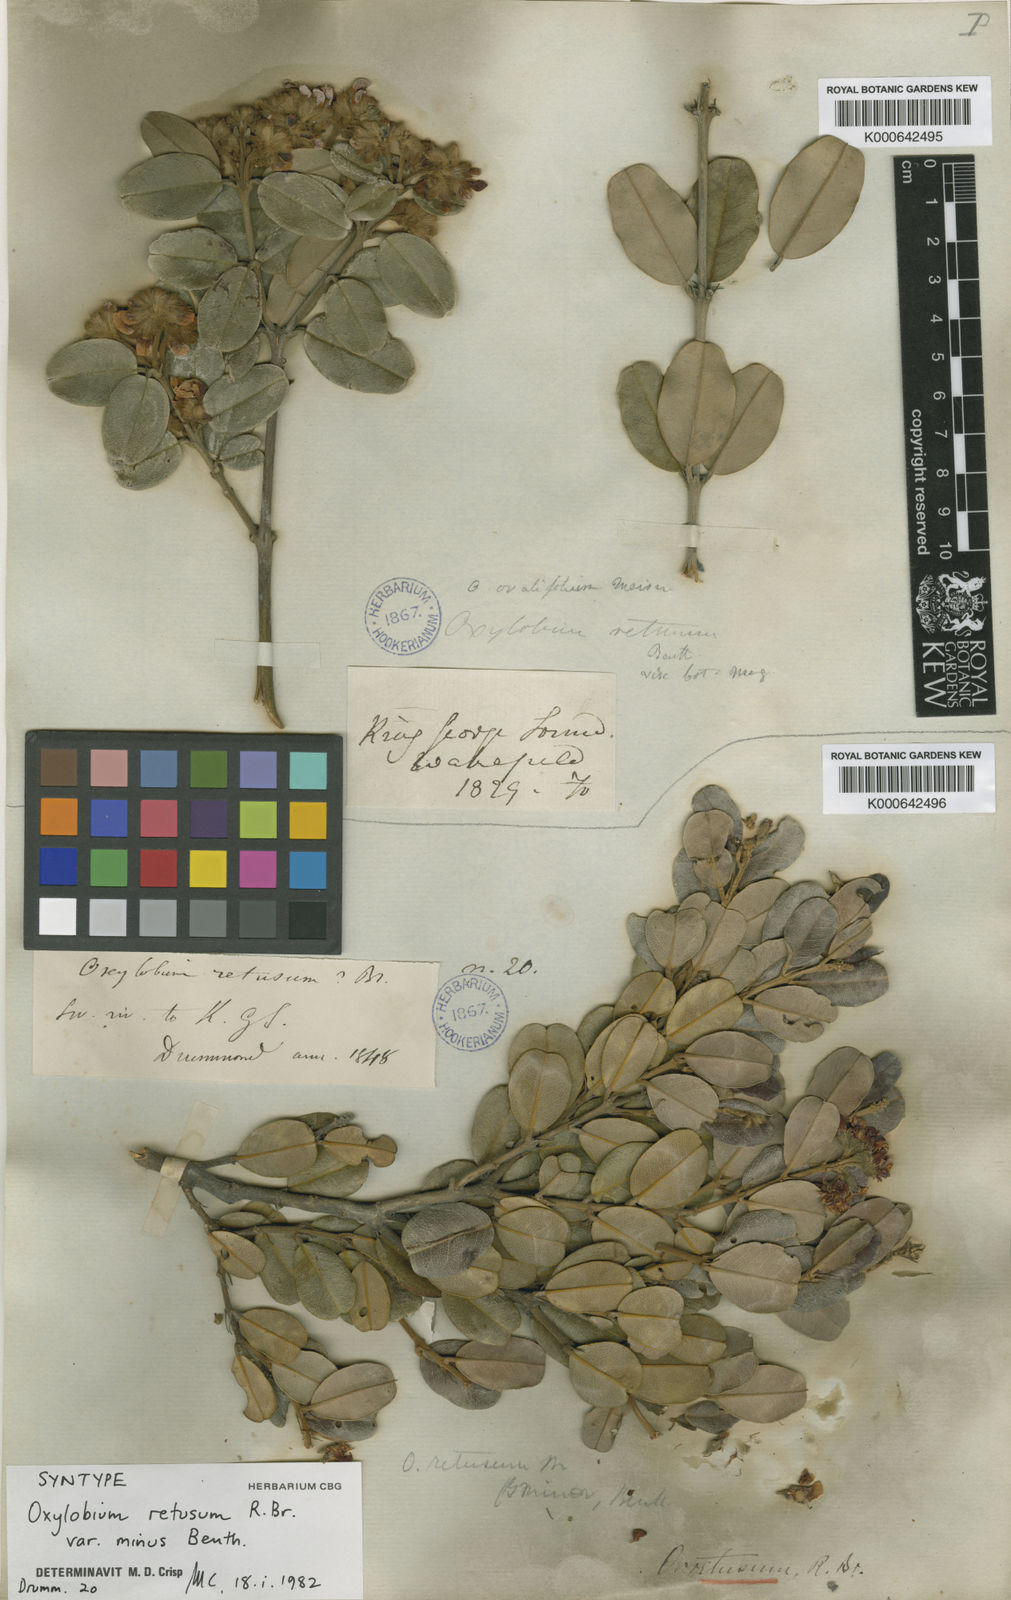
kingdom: Plantae
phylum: Tracheophyta
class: Magnoliopsida
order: Fabales
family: Fabaceae
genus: Gastrolobium
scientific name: Gastrolobium congestum
